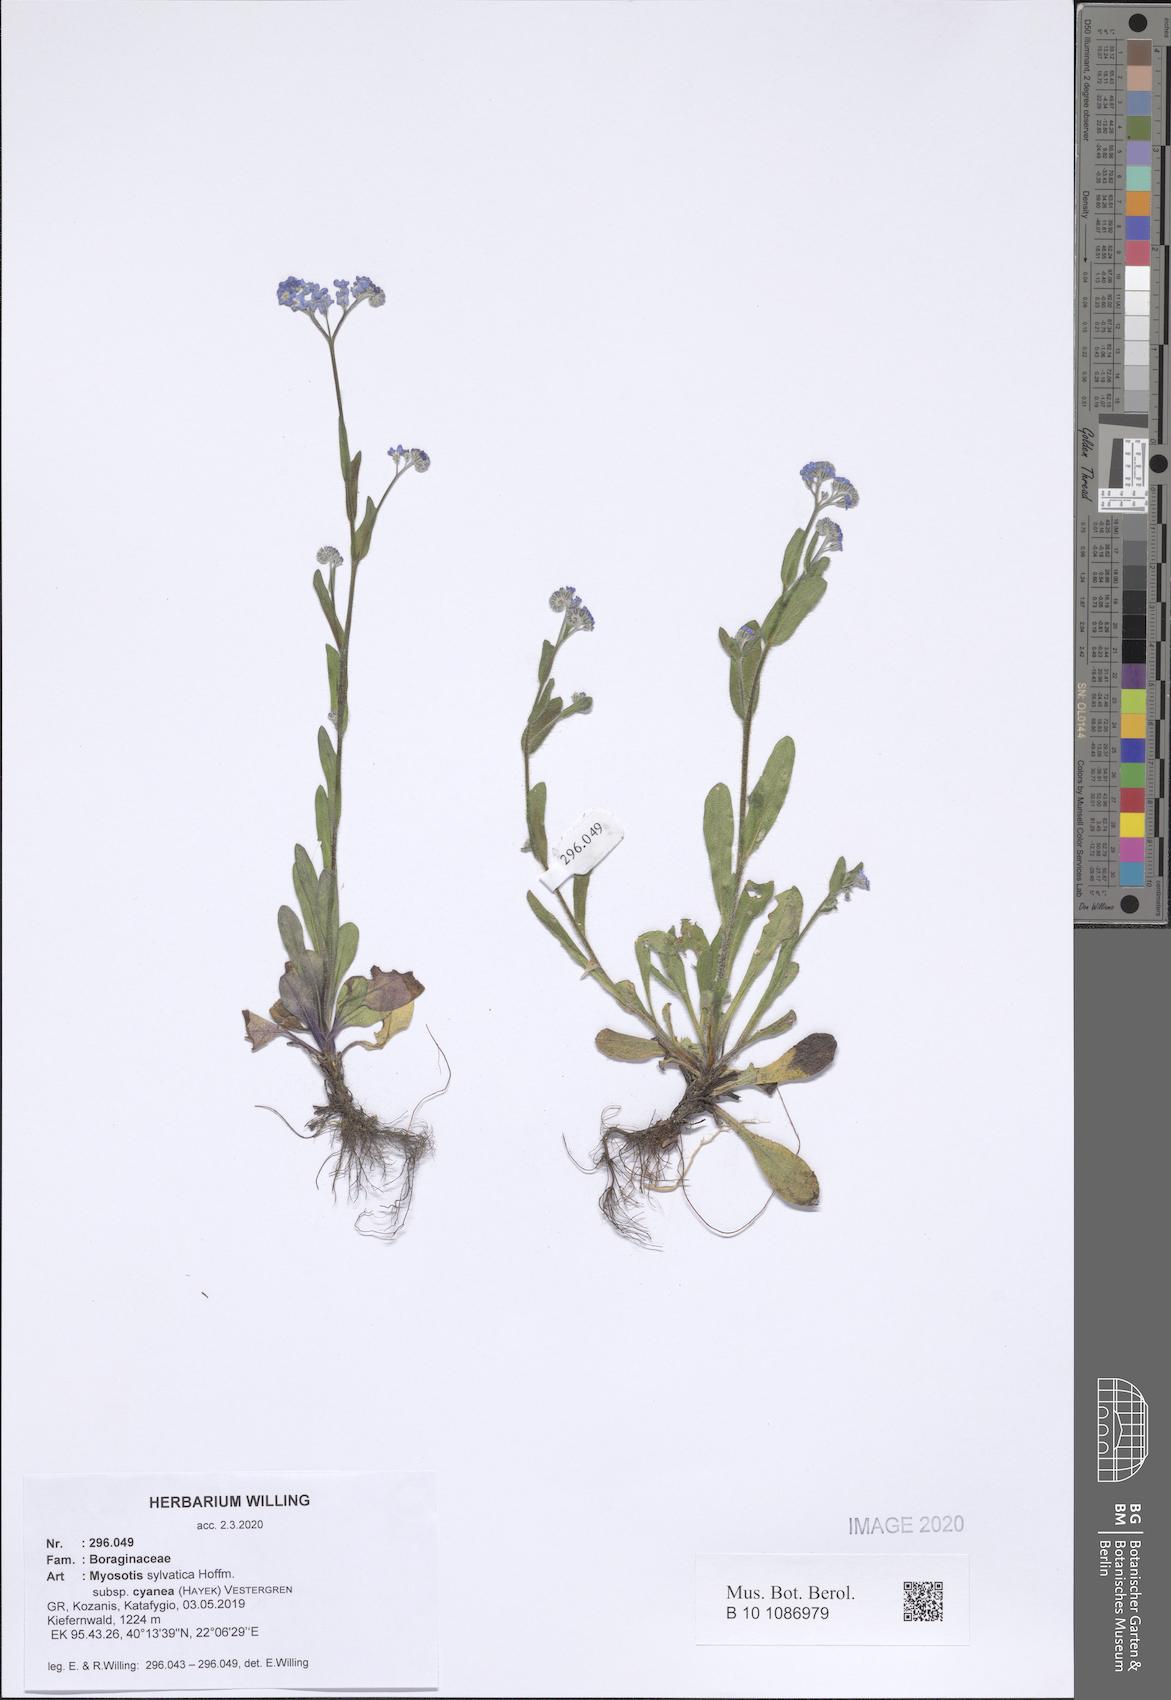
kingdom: Plantae
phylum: Tracheophyta
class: Magnoliopsida
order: Boraginales
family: Boraginaceae
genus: Myosotis
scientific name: Myosotis sylvatica
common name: Wood forget-me-not
